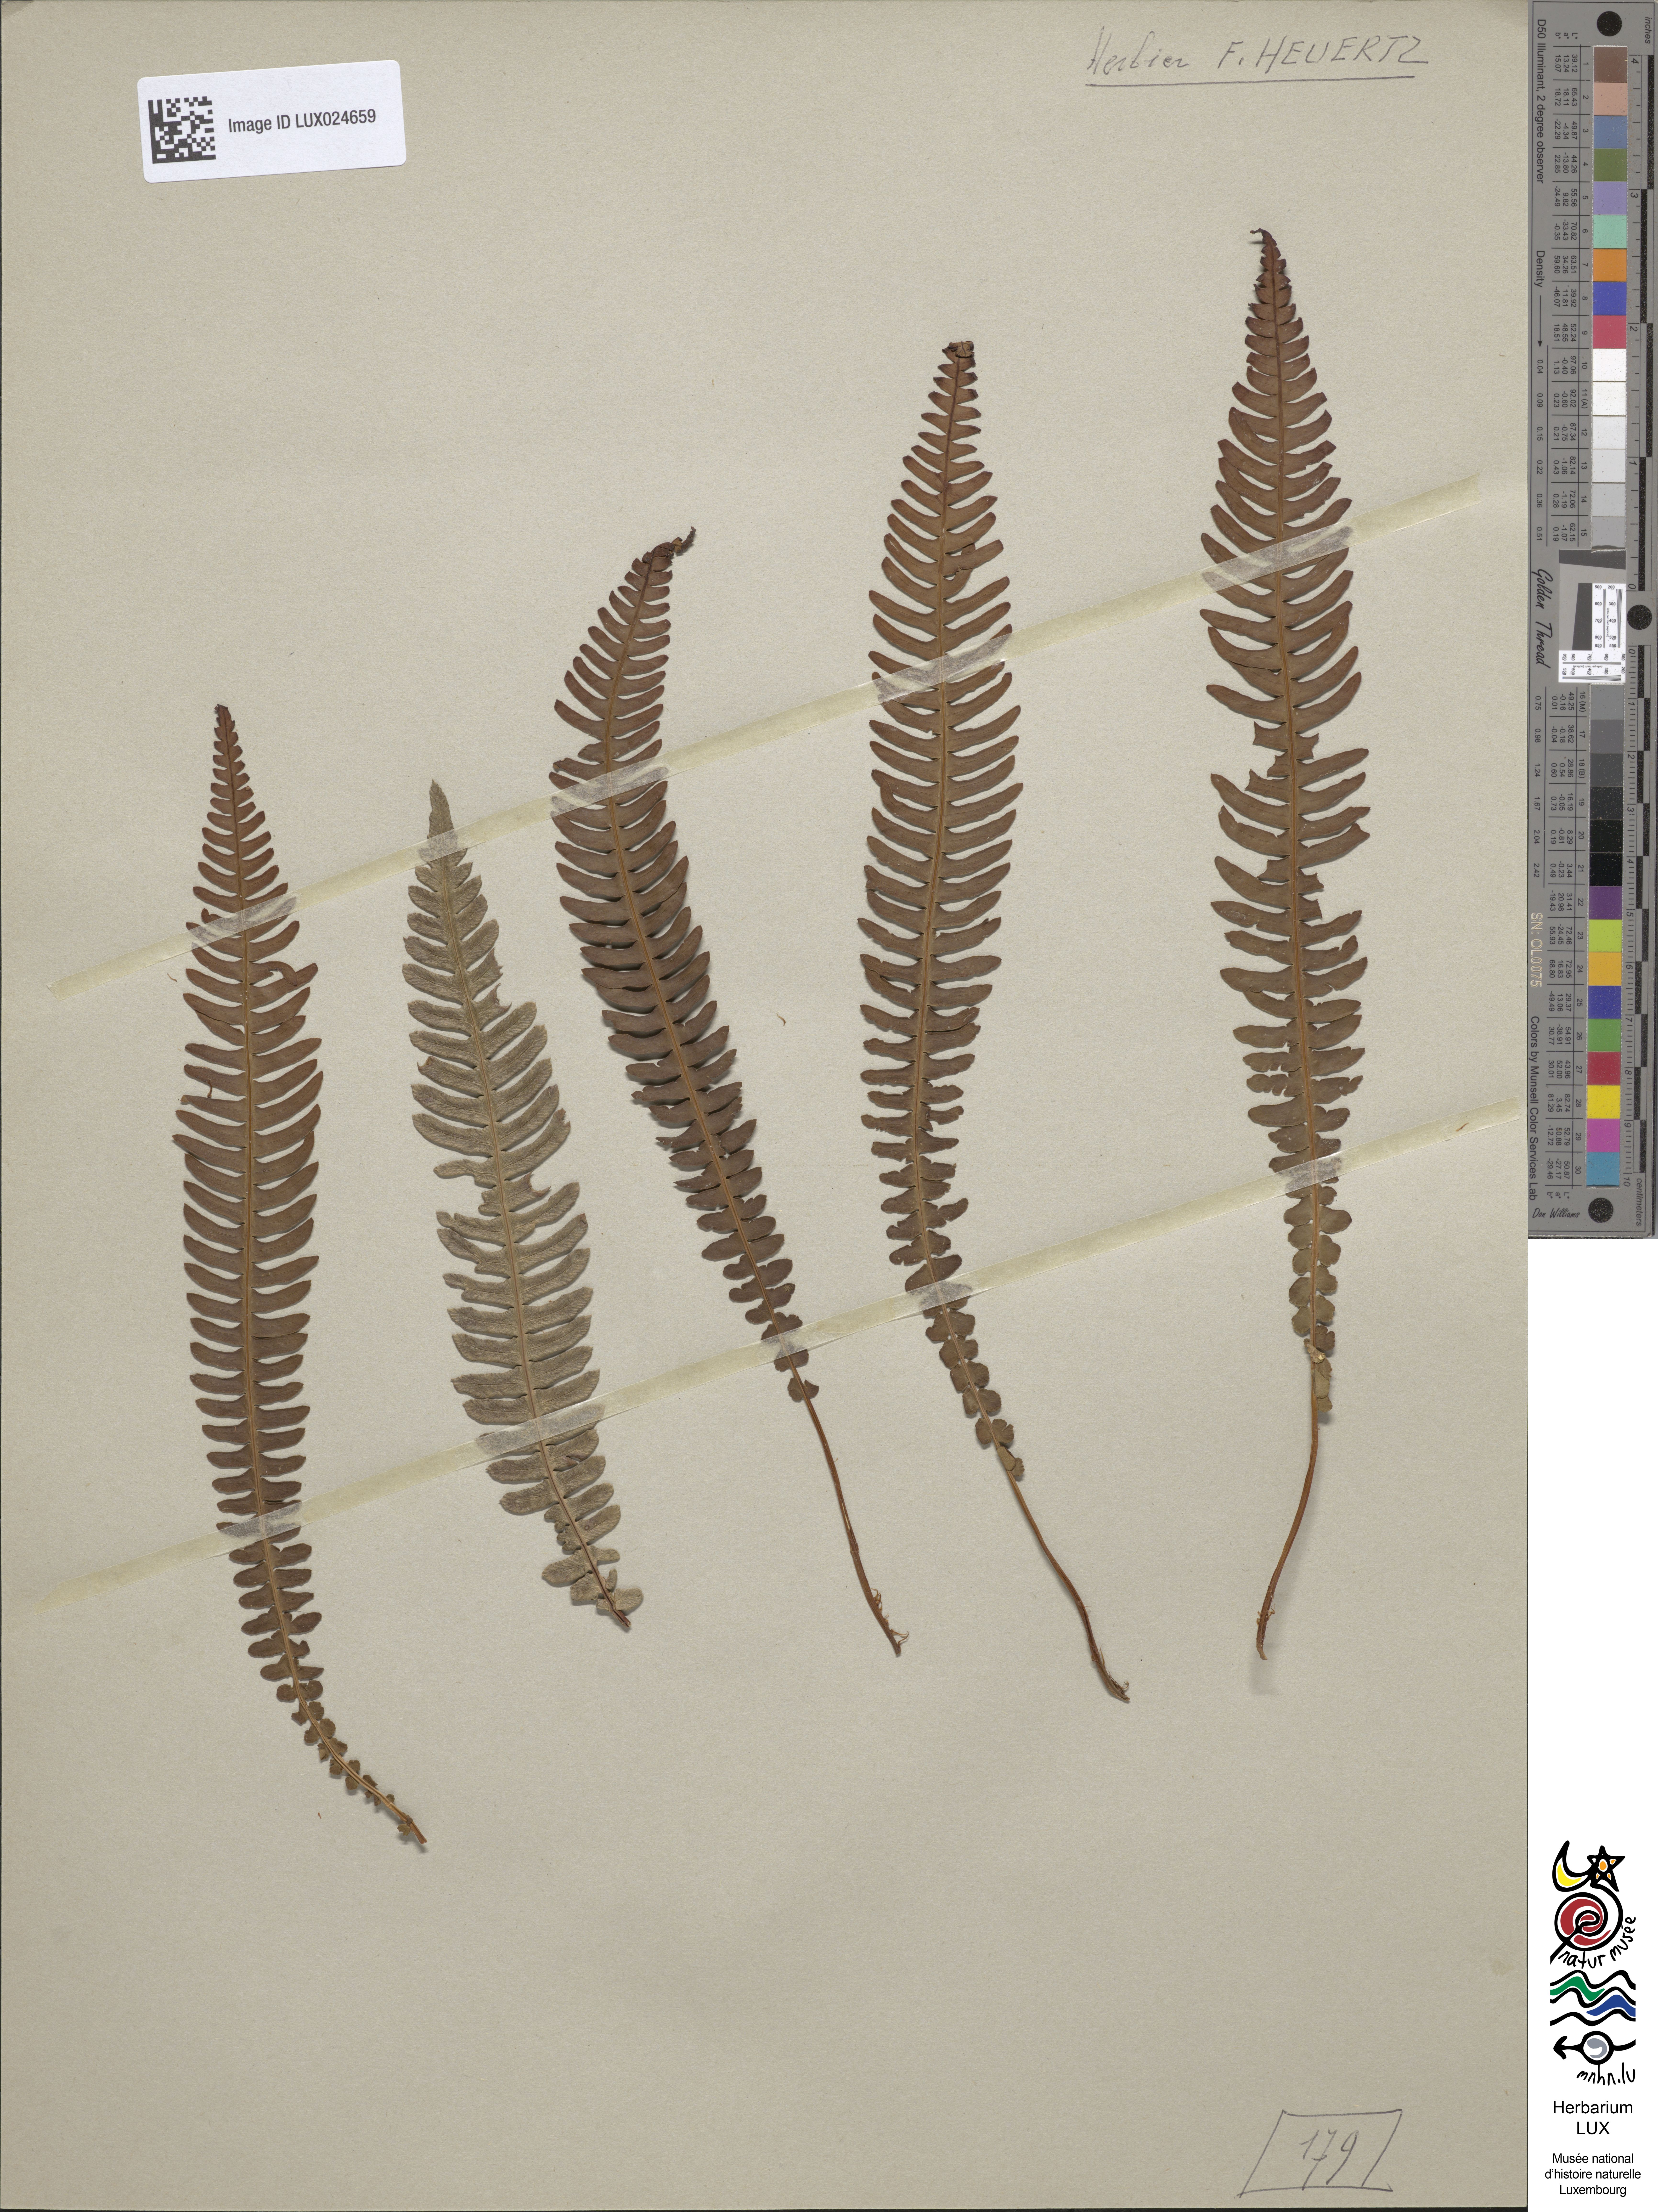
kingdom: Plantae
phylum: Tracheophyta
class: Polypodiopsida
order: Polypodiales
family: Blechnaceae
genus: Struthiopteris
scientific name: Struthiopteris spicant
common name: Deer fern
